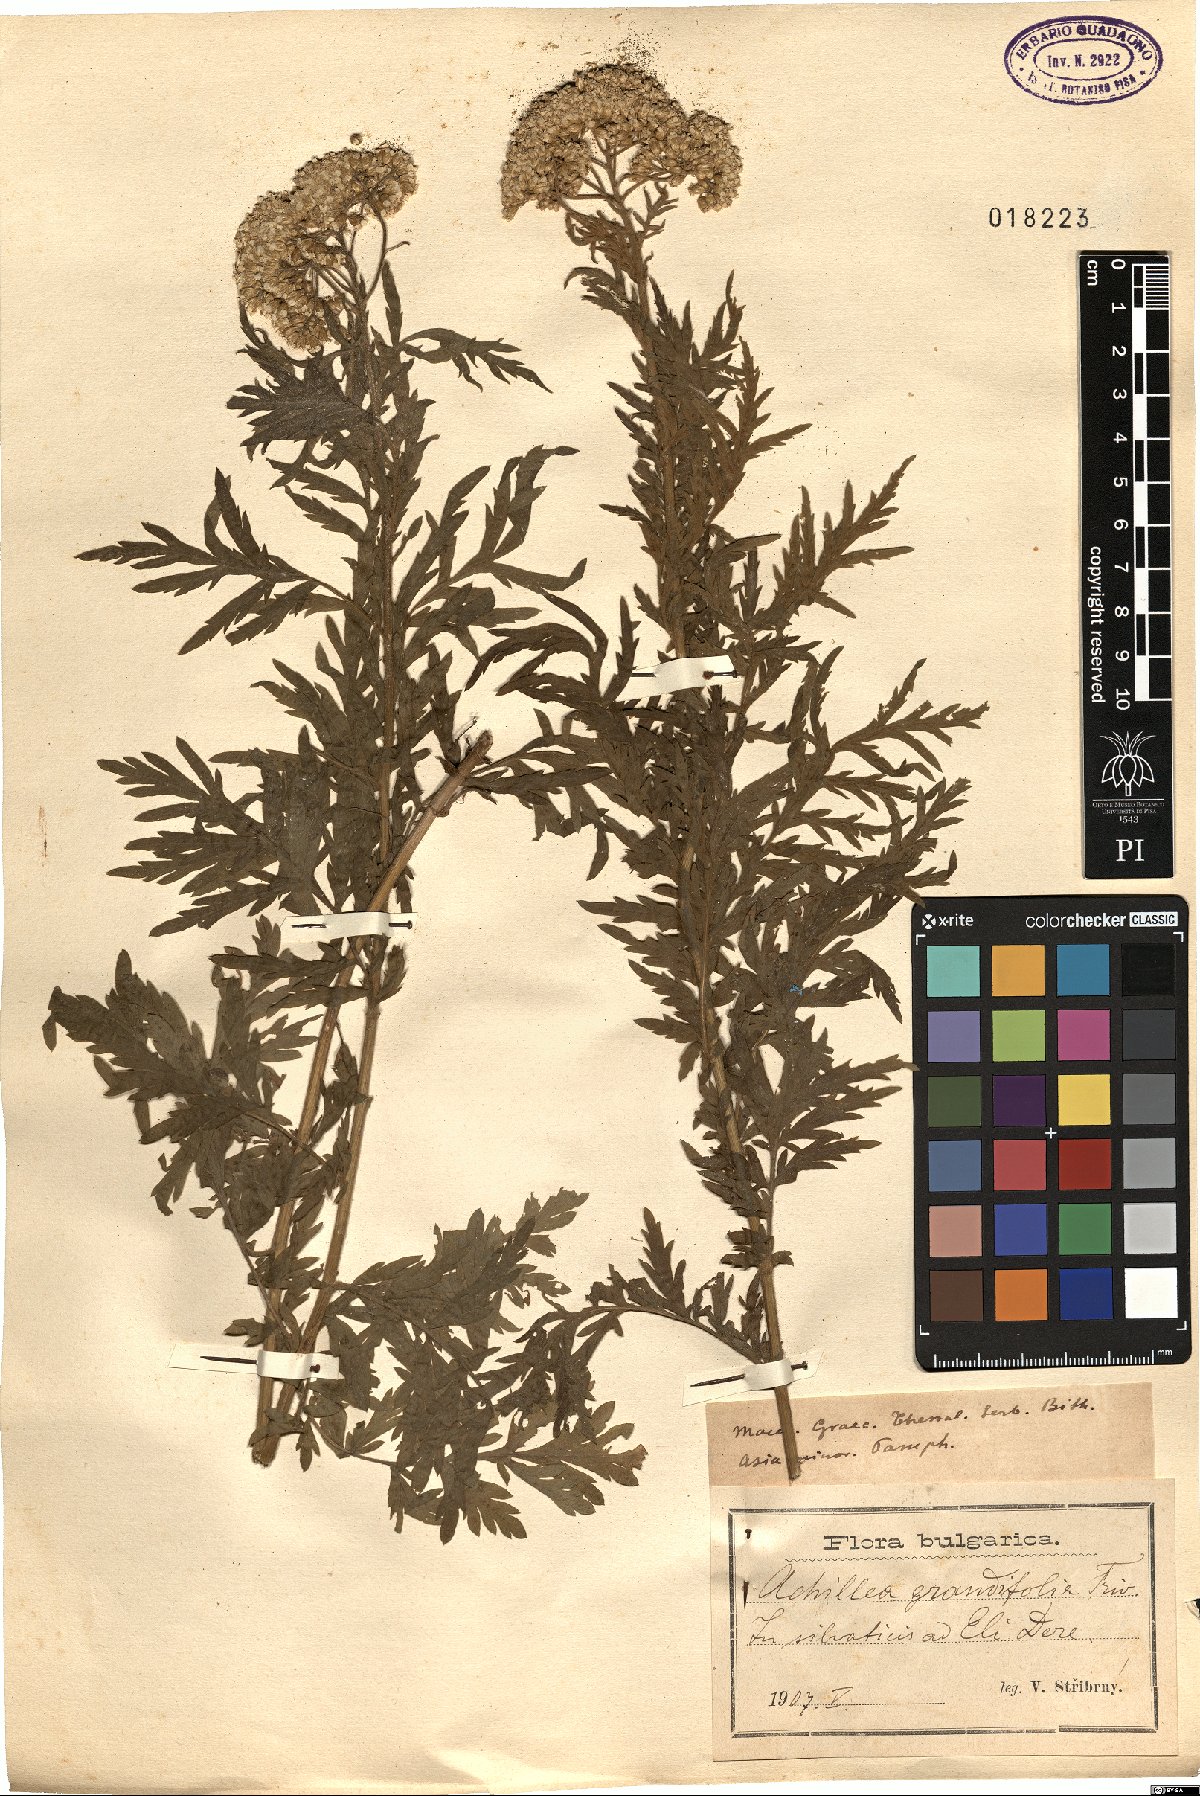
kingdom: Plantae
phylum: Tracheophyta
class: Magnoliopsida
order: Asterales
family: Asteraceae
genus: Achillea
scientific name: Achillea grandifolia
